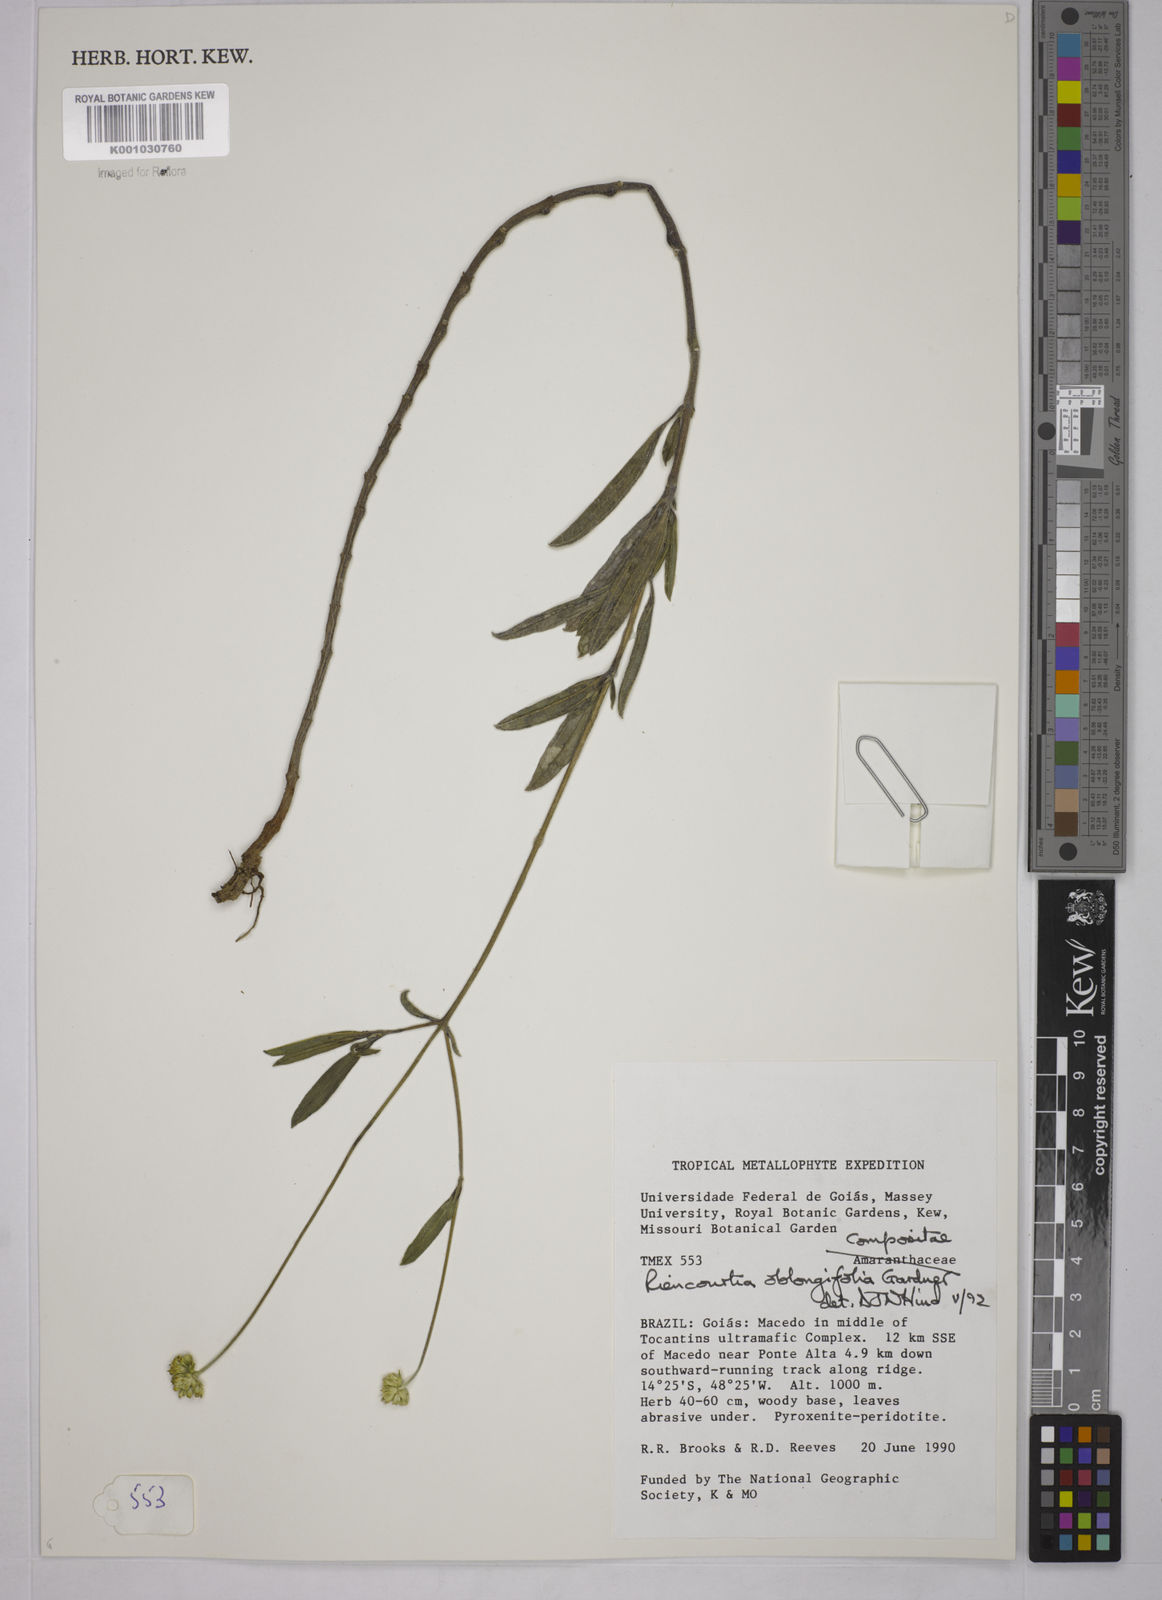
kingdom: Plantae
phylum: Tracheophyta
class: Magnoliopsida
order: Asterales
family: Asteraceae
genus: Riencourtia
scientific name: Riencourtia oblongifolia
